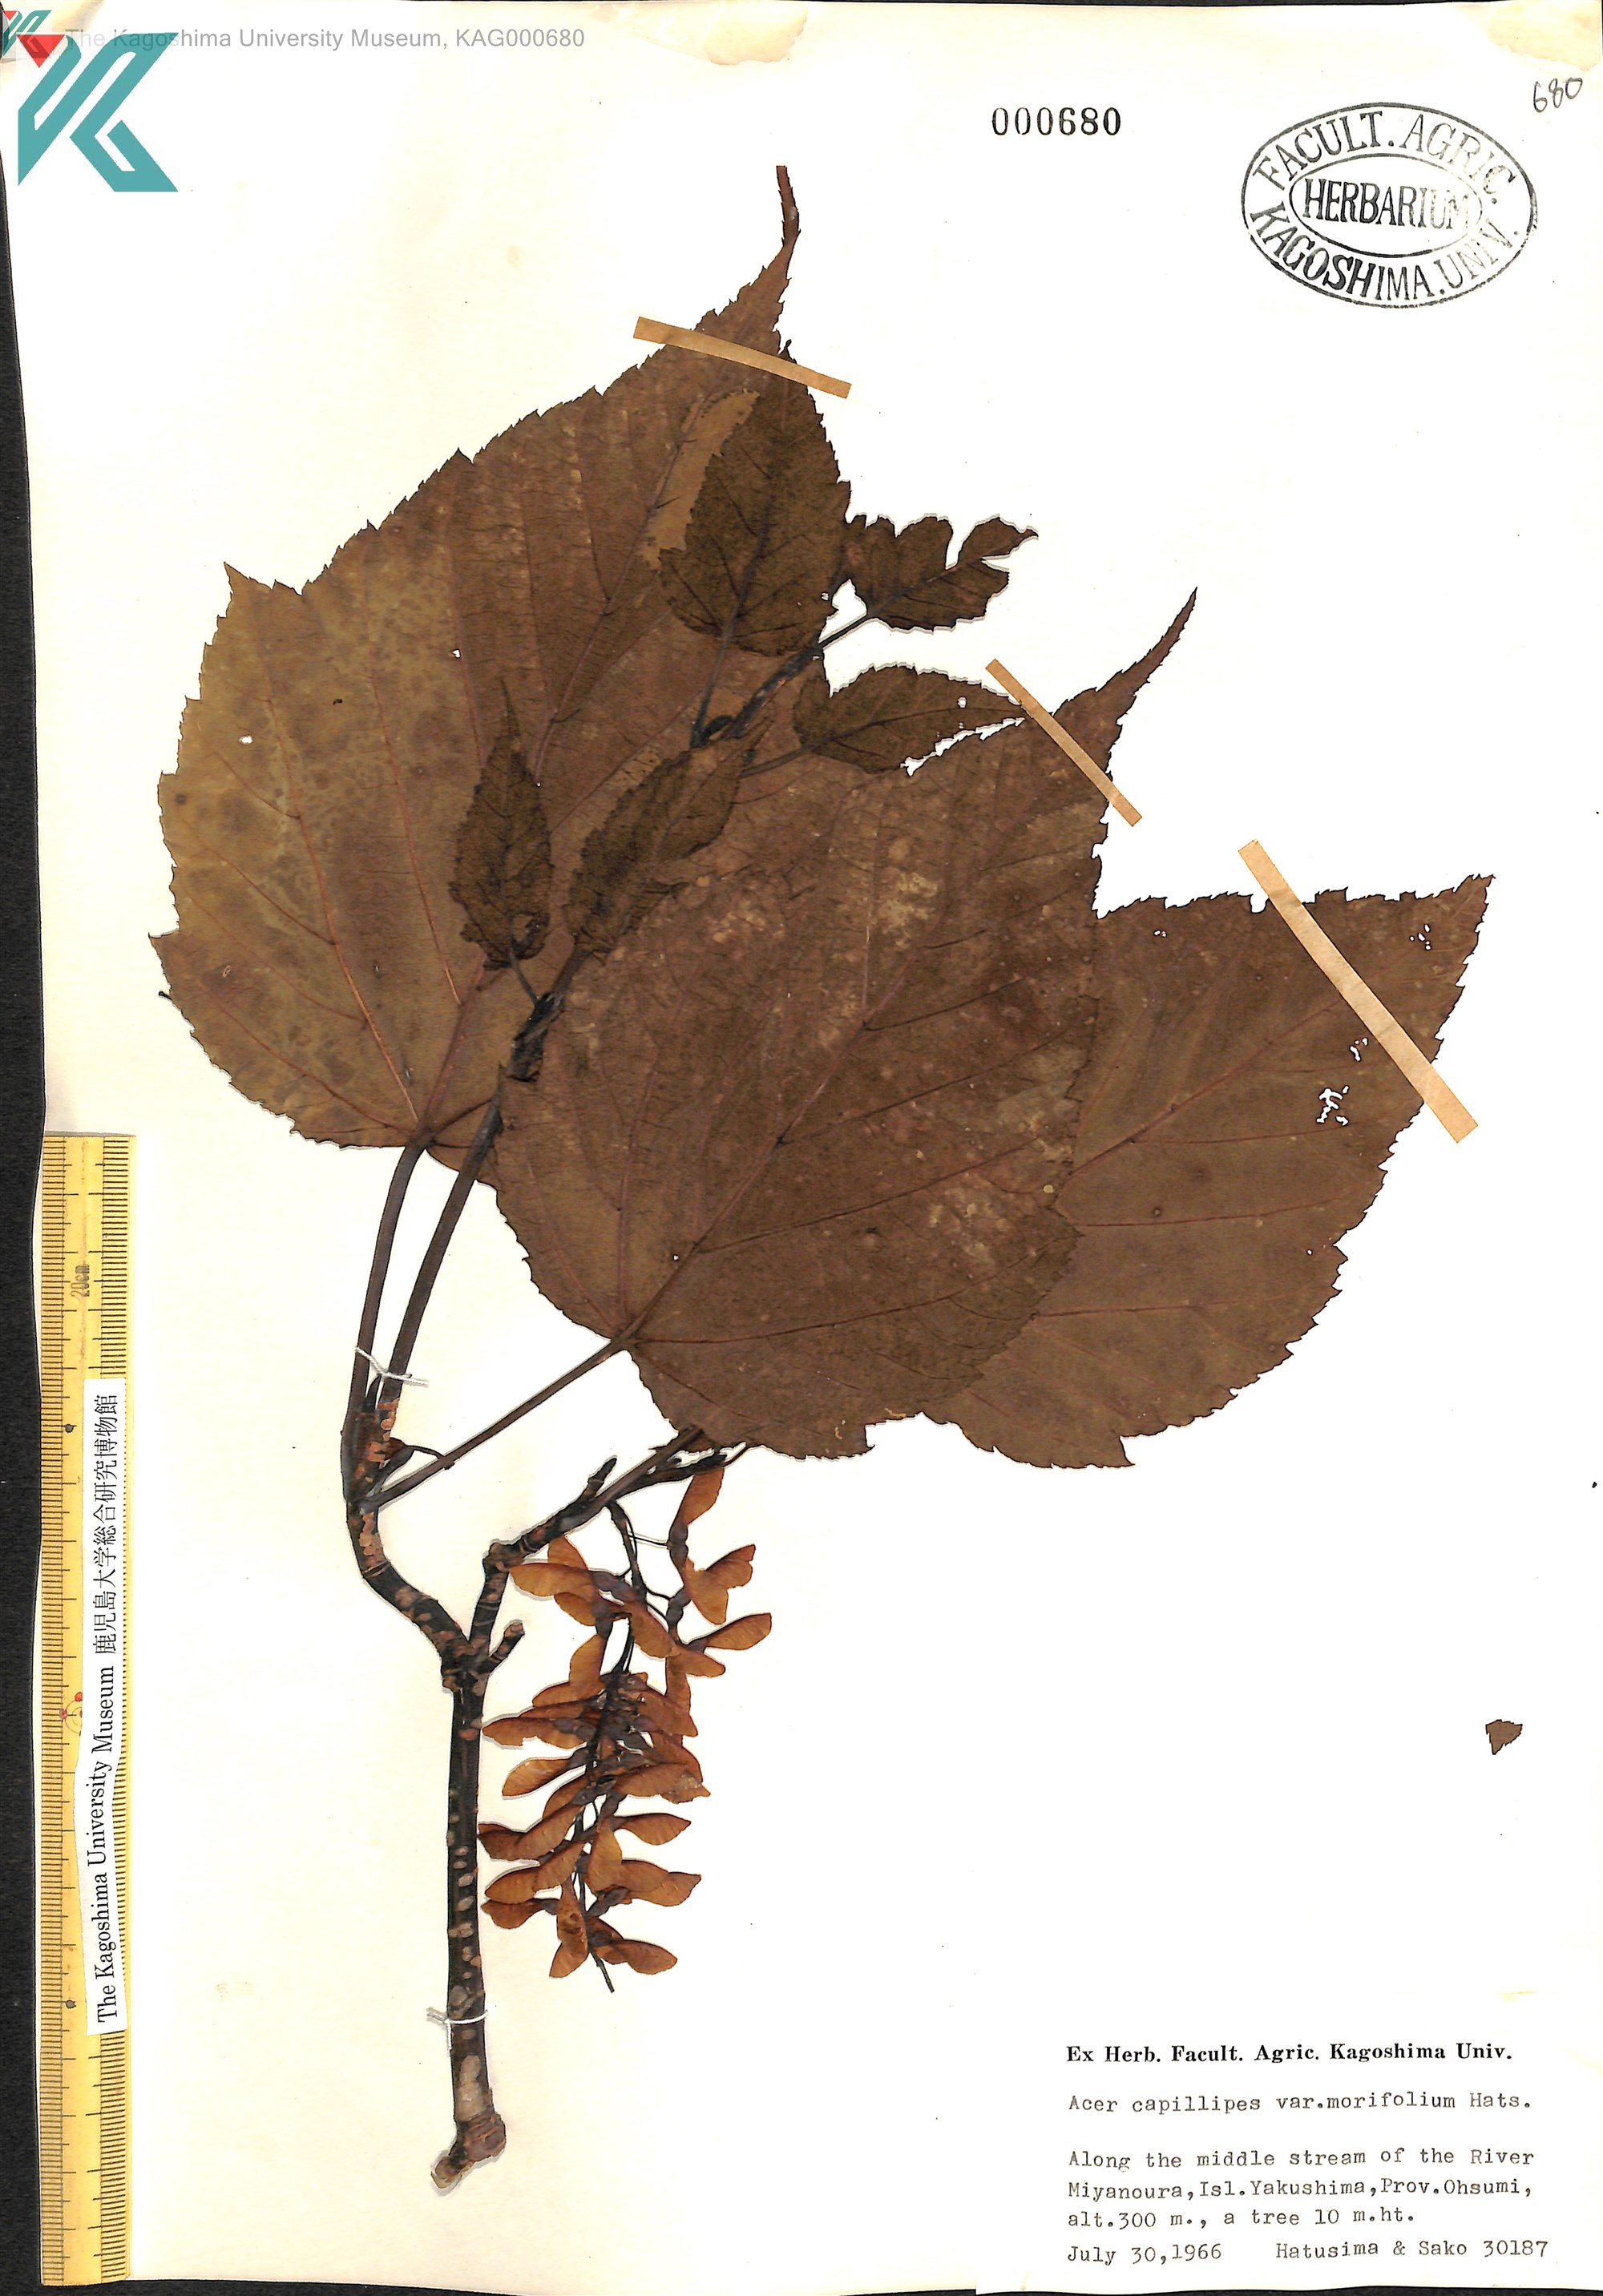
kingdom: Plantae
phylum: Tracheophyta
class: Magnoliopsida
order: Sapindales
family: Sapindaceae
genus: Acer
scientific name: Acer morifolium
